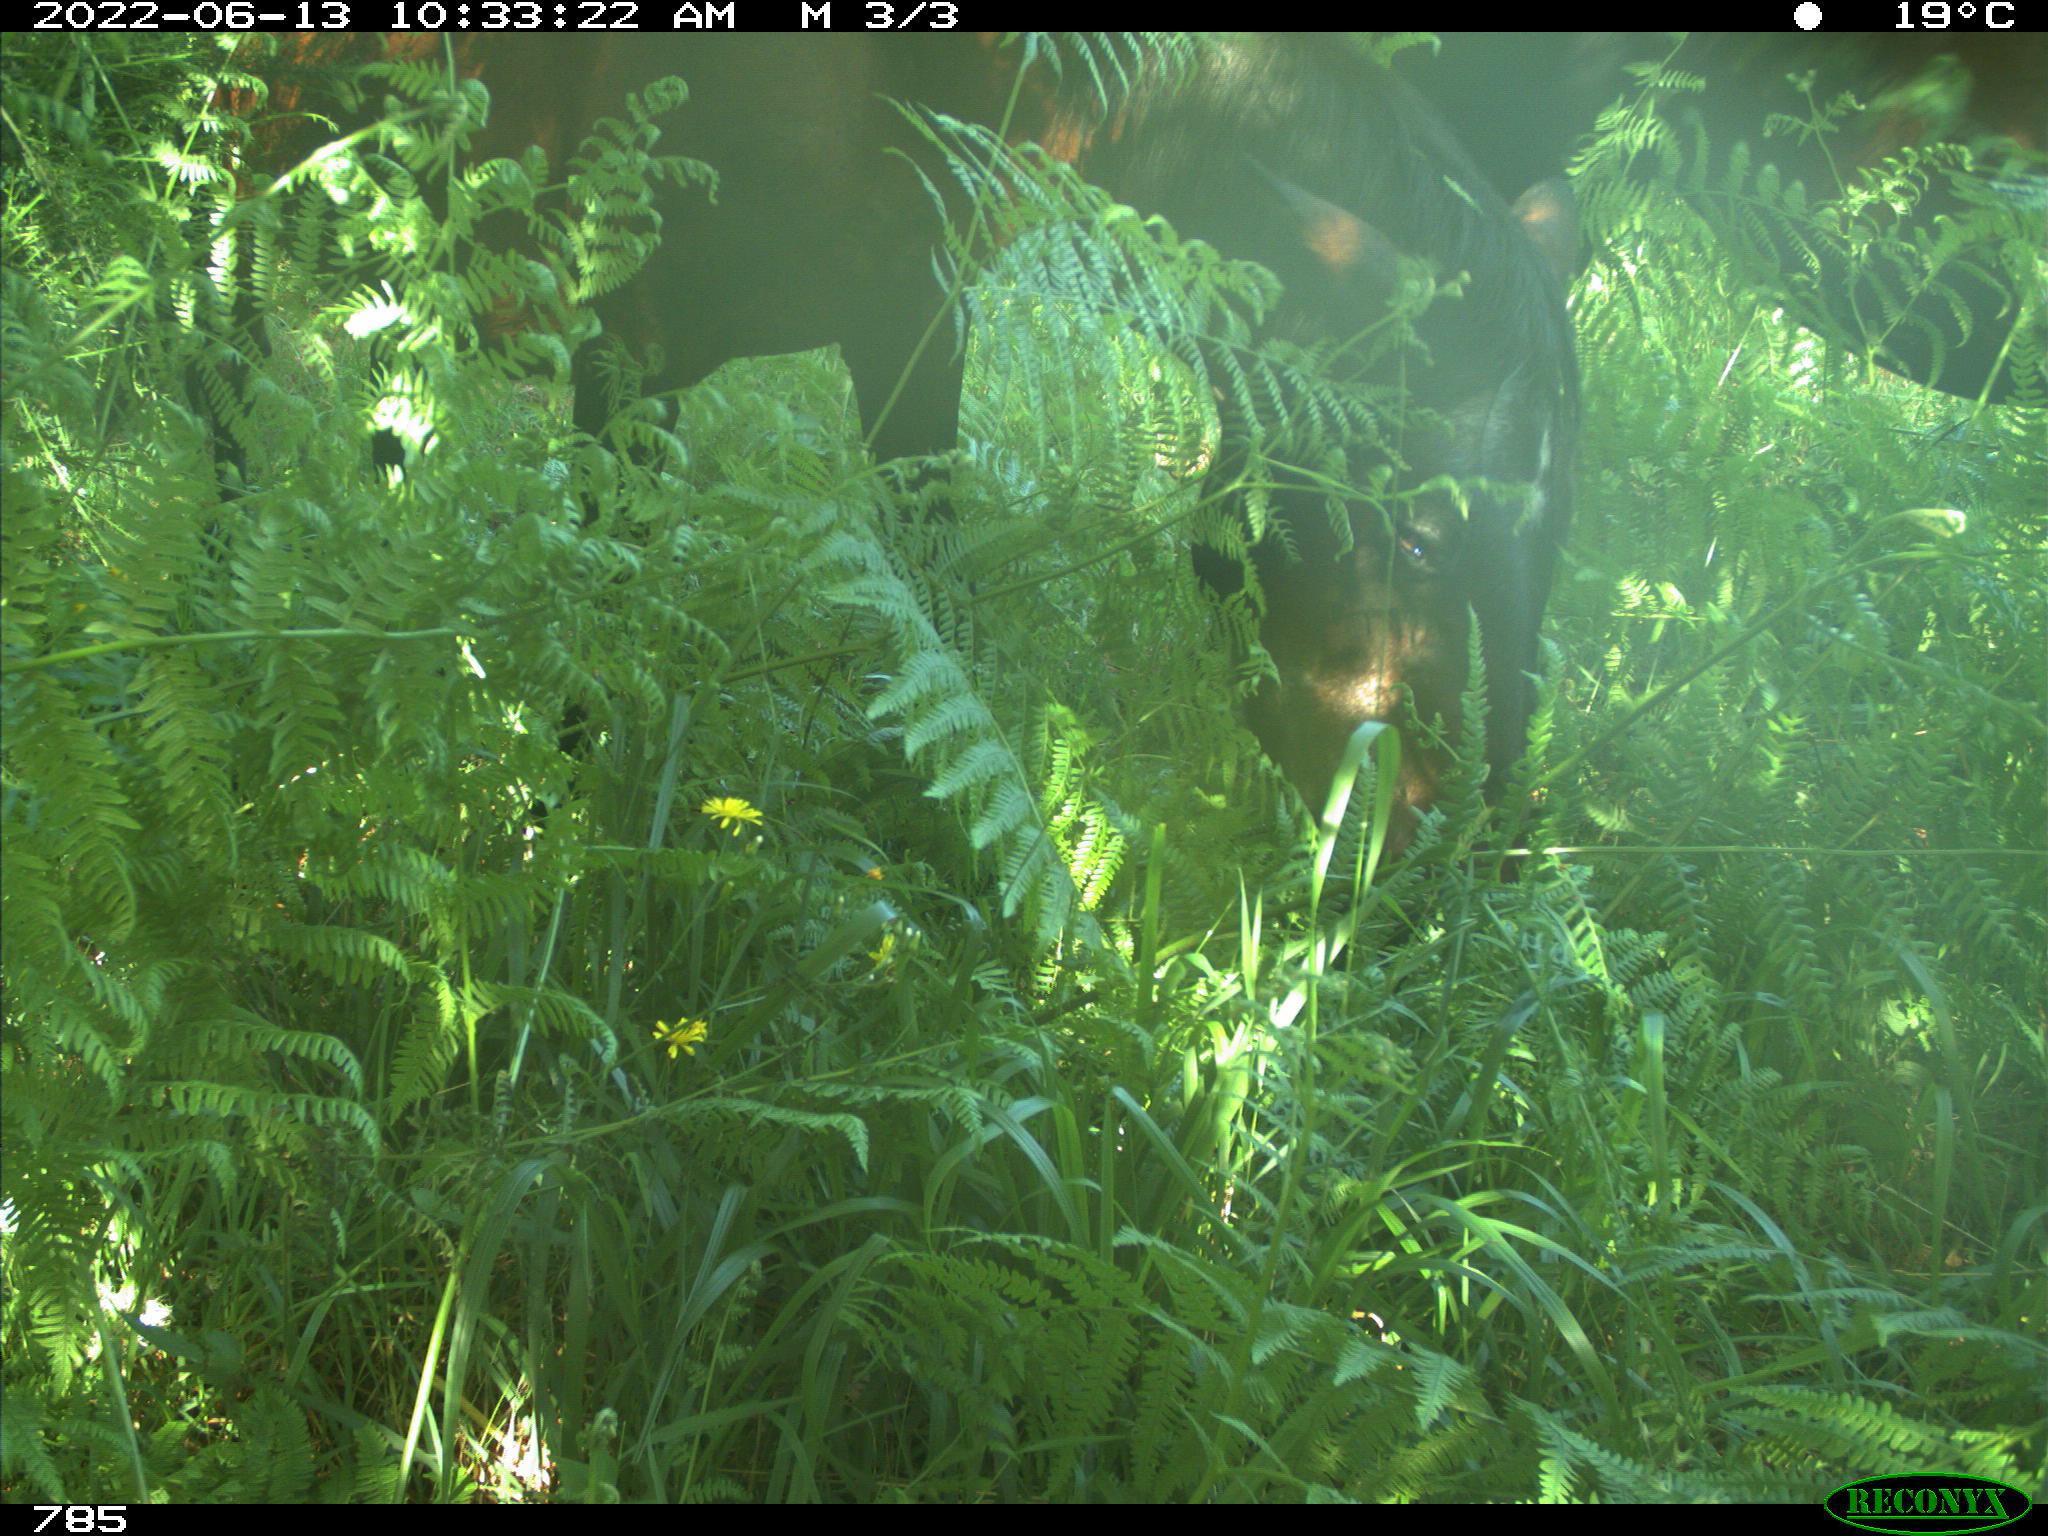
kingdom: Animalia
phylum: Chordata
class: Mammalia
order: Perissodactyla
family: Equidae
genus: Equus
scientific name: Equus caballus
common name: Horse
